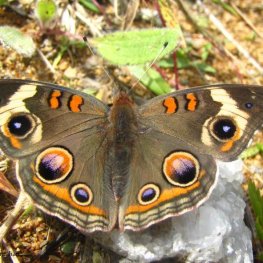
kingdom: Animalia
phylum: Arthropoda
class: Insecta
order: Lepidoptera
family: Nymphalidae
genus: Junonia
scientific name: Junonia coenia
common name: Common Buckeye
